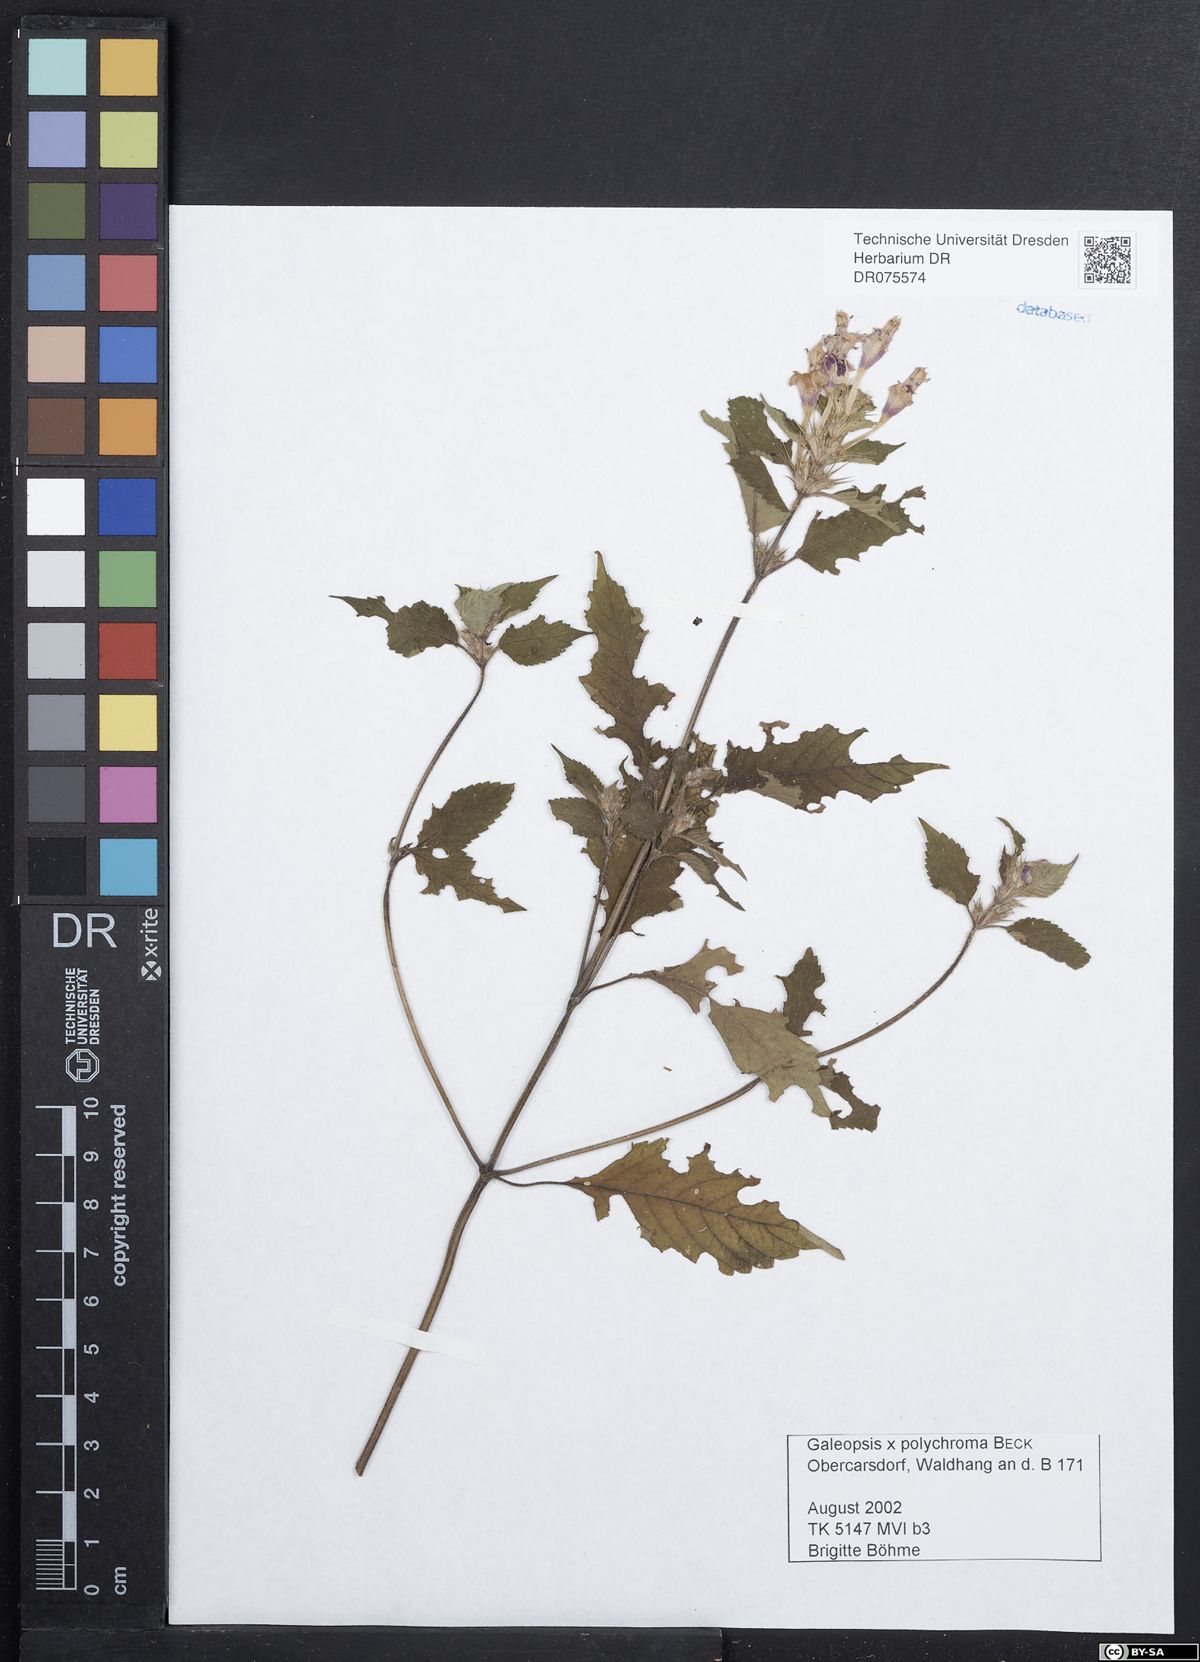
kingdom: Plantae
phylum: Tracheophyta
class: Magnoliopsida
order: Lamiales
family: Lamiaceae
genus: Galeopsis
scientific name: Galeopsis polychroma
